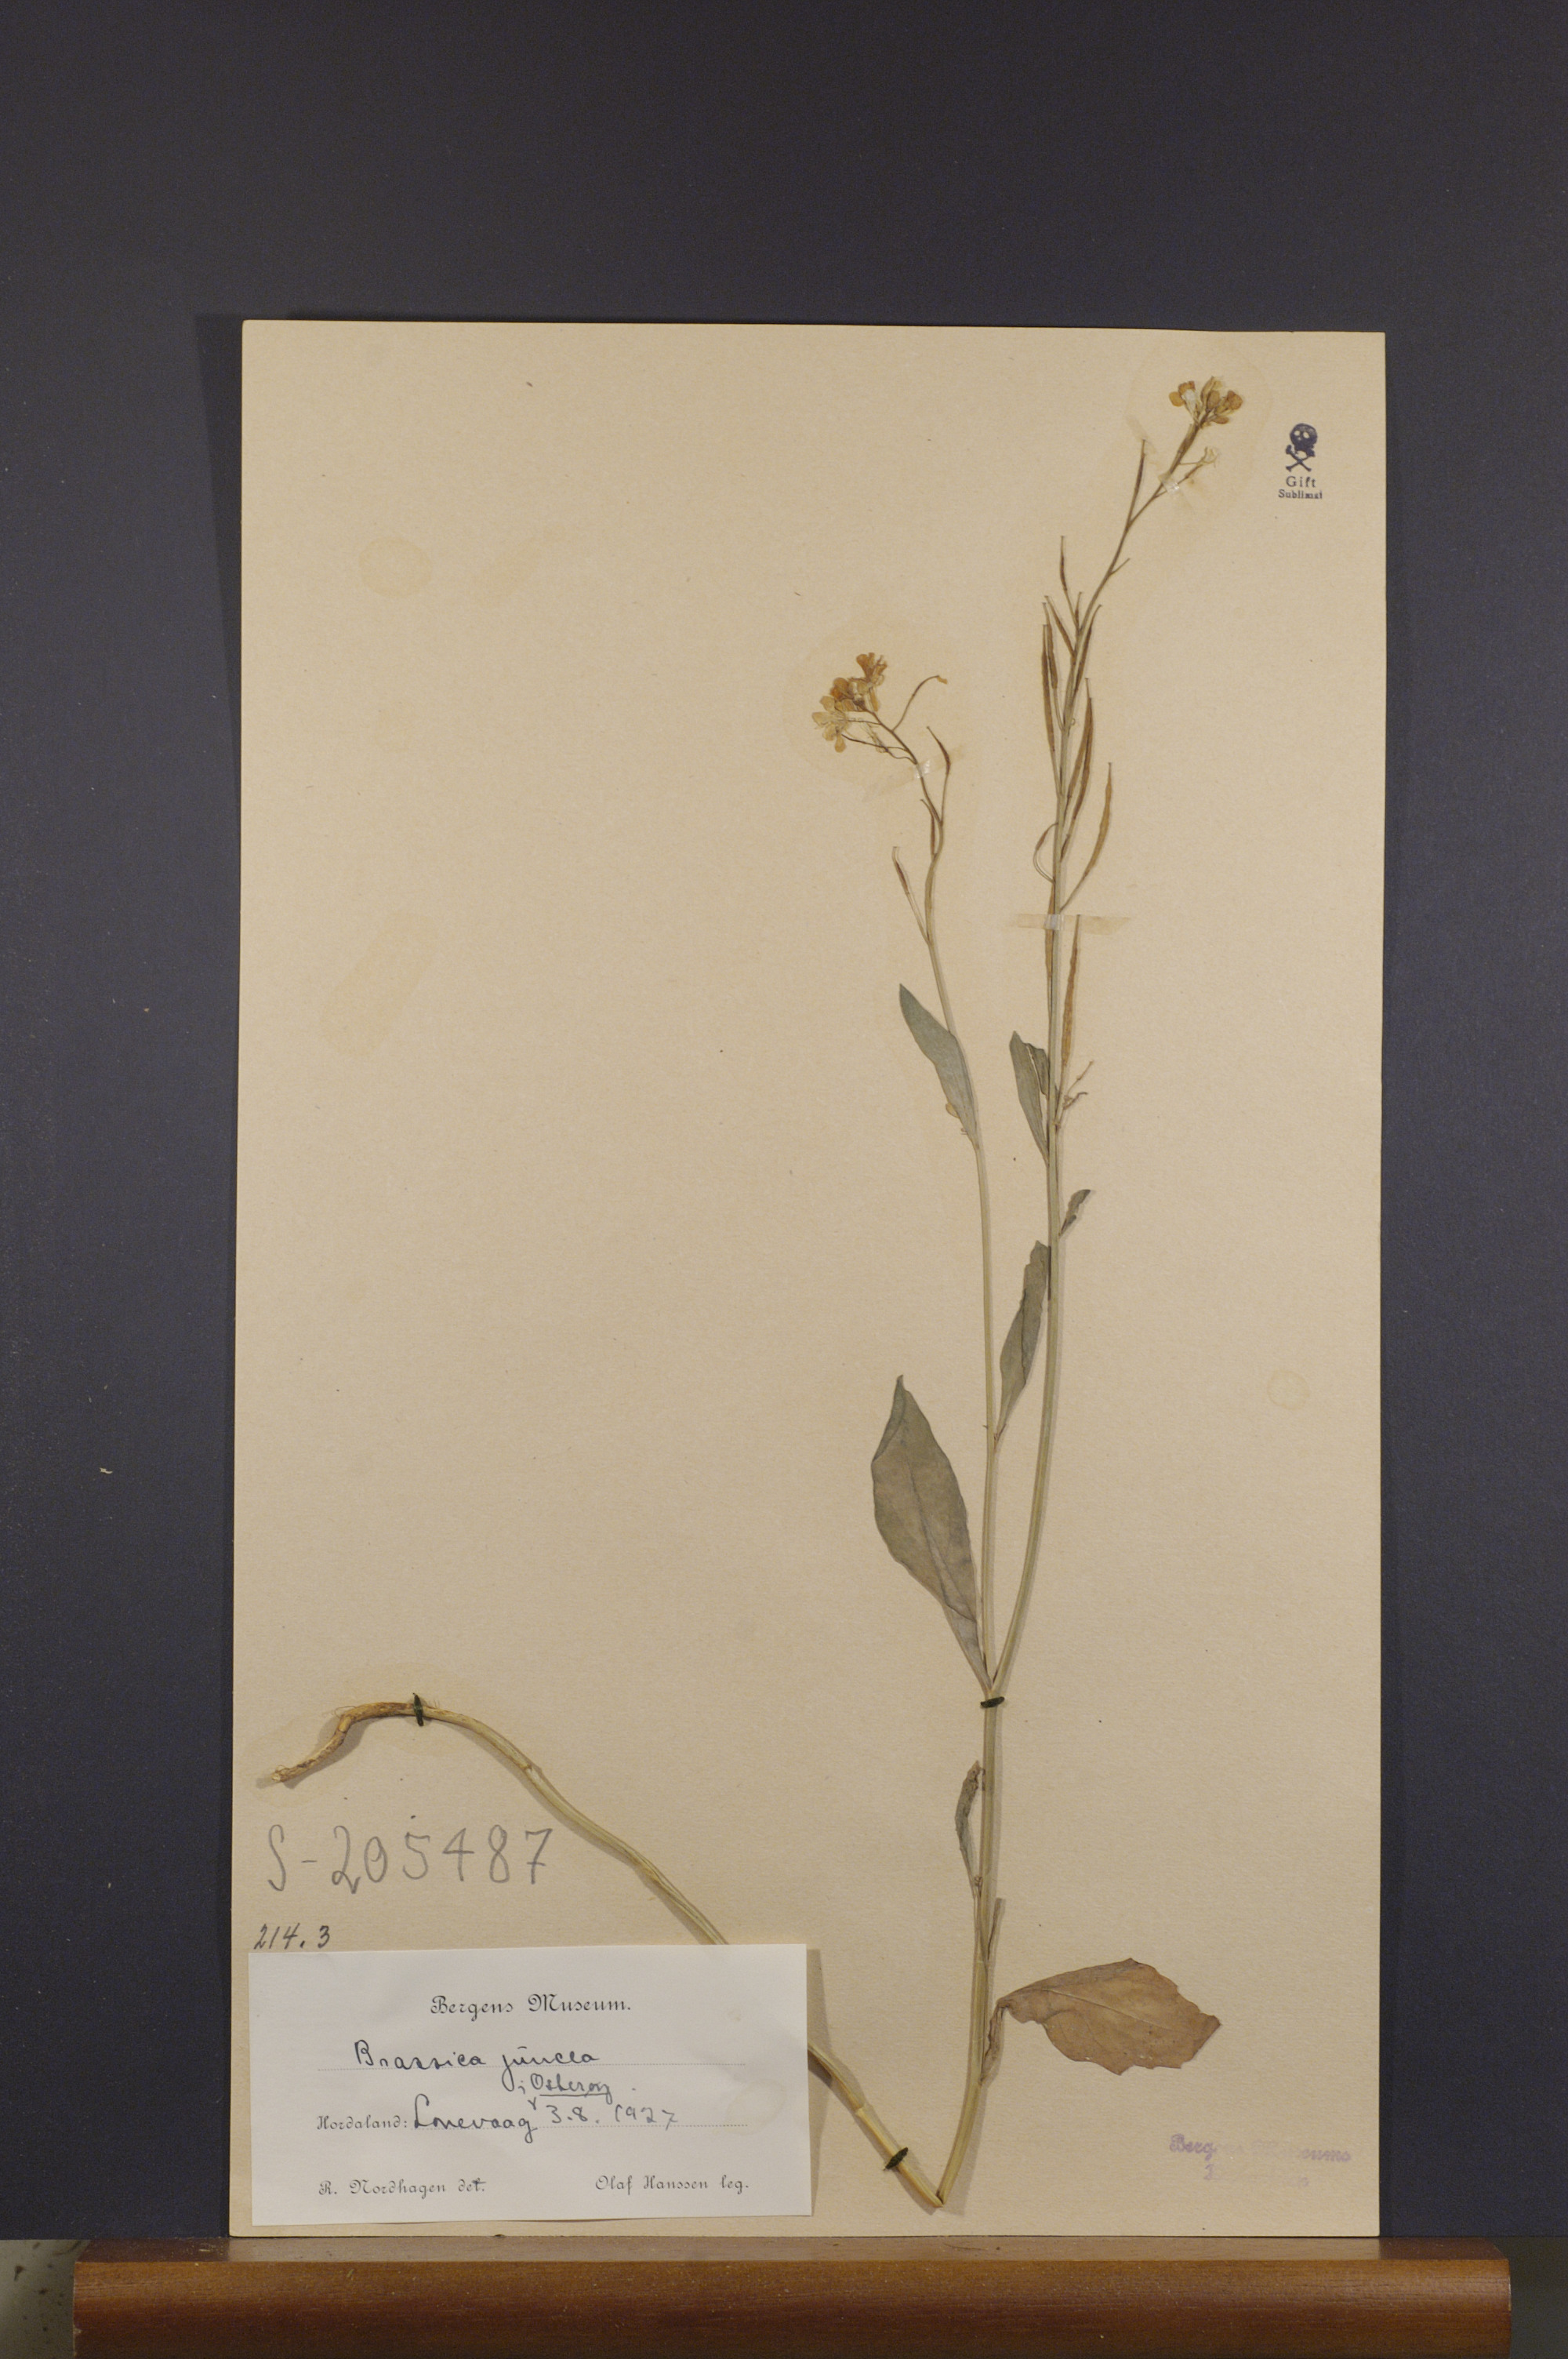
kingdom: Plantae
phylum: Tracheophyta
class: Magnoliopsida
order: Brassicales
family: Brassicaceae
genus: Brassica
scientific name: Brassica juncea
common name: Brown mustard
